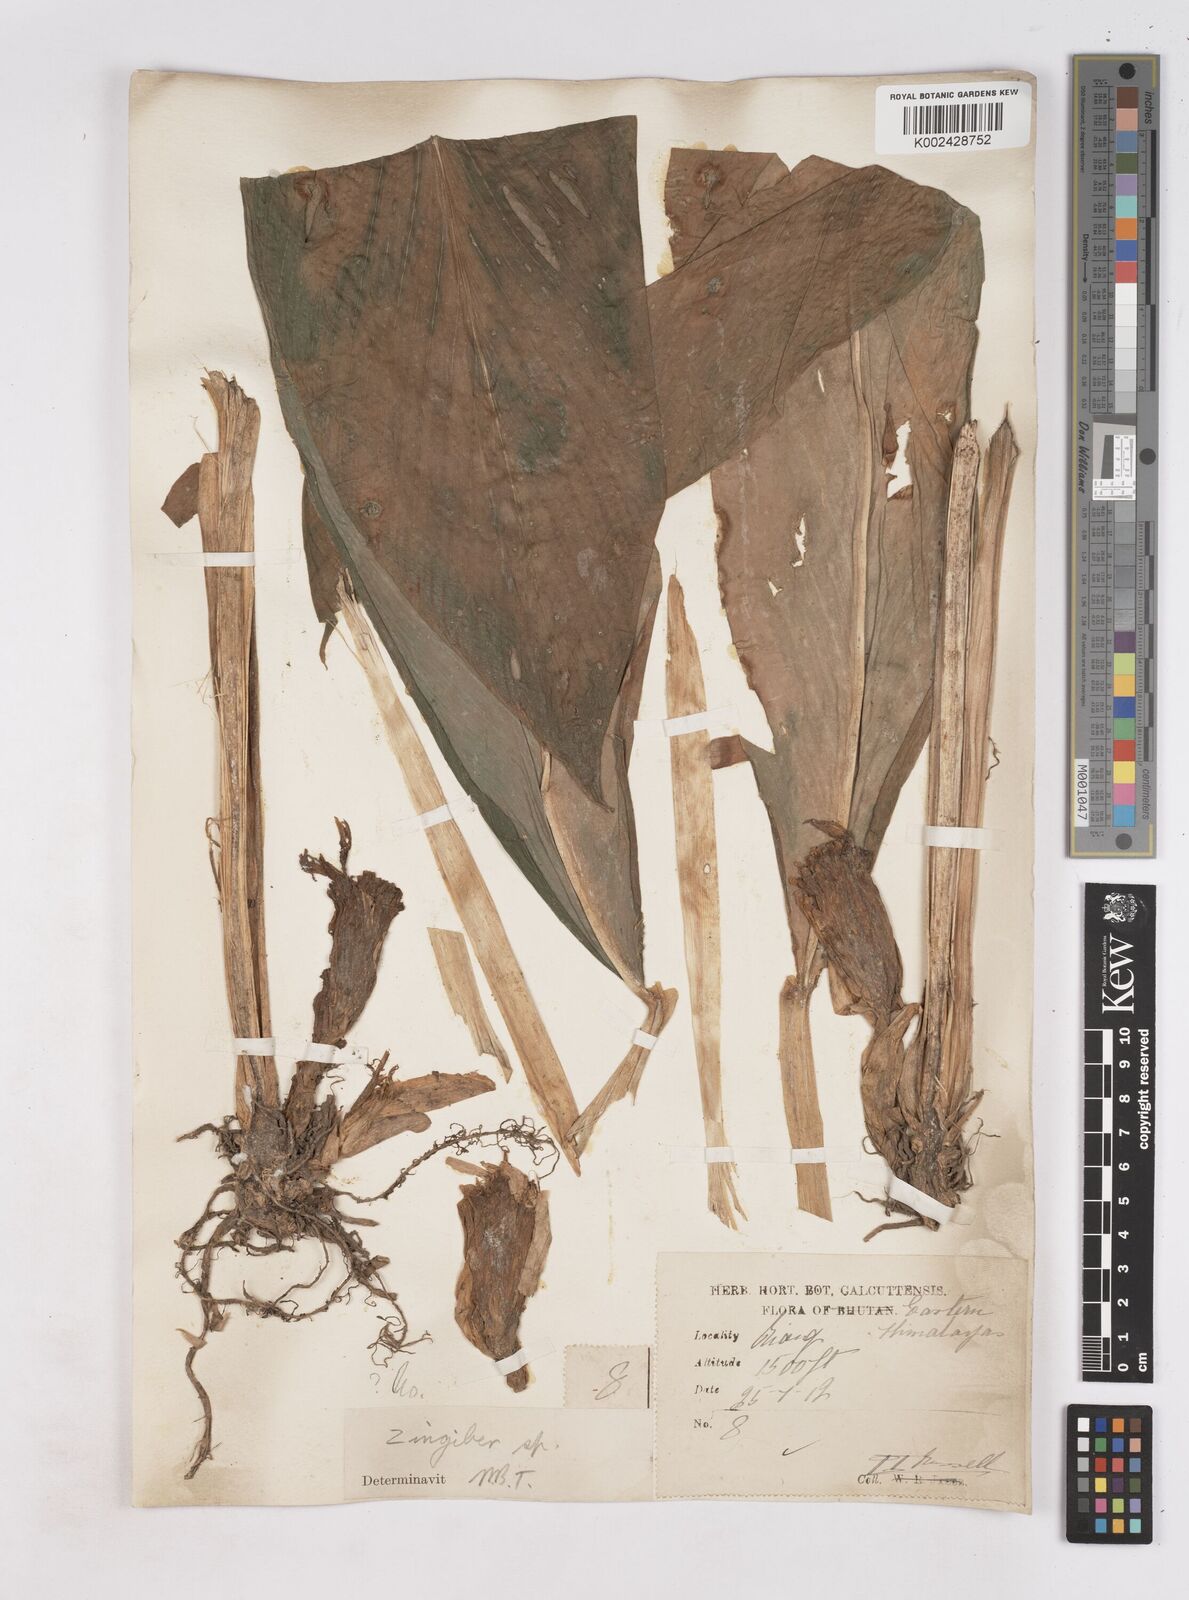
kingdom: Plantae
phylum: Tracheophyta
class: Liliopsida
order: Zingiberales
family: Zingiberaceae
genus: Zingiber
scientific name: Zingiber
